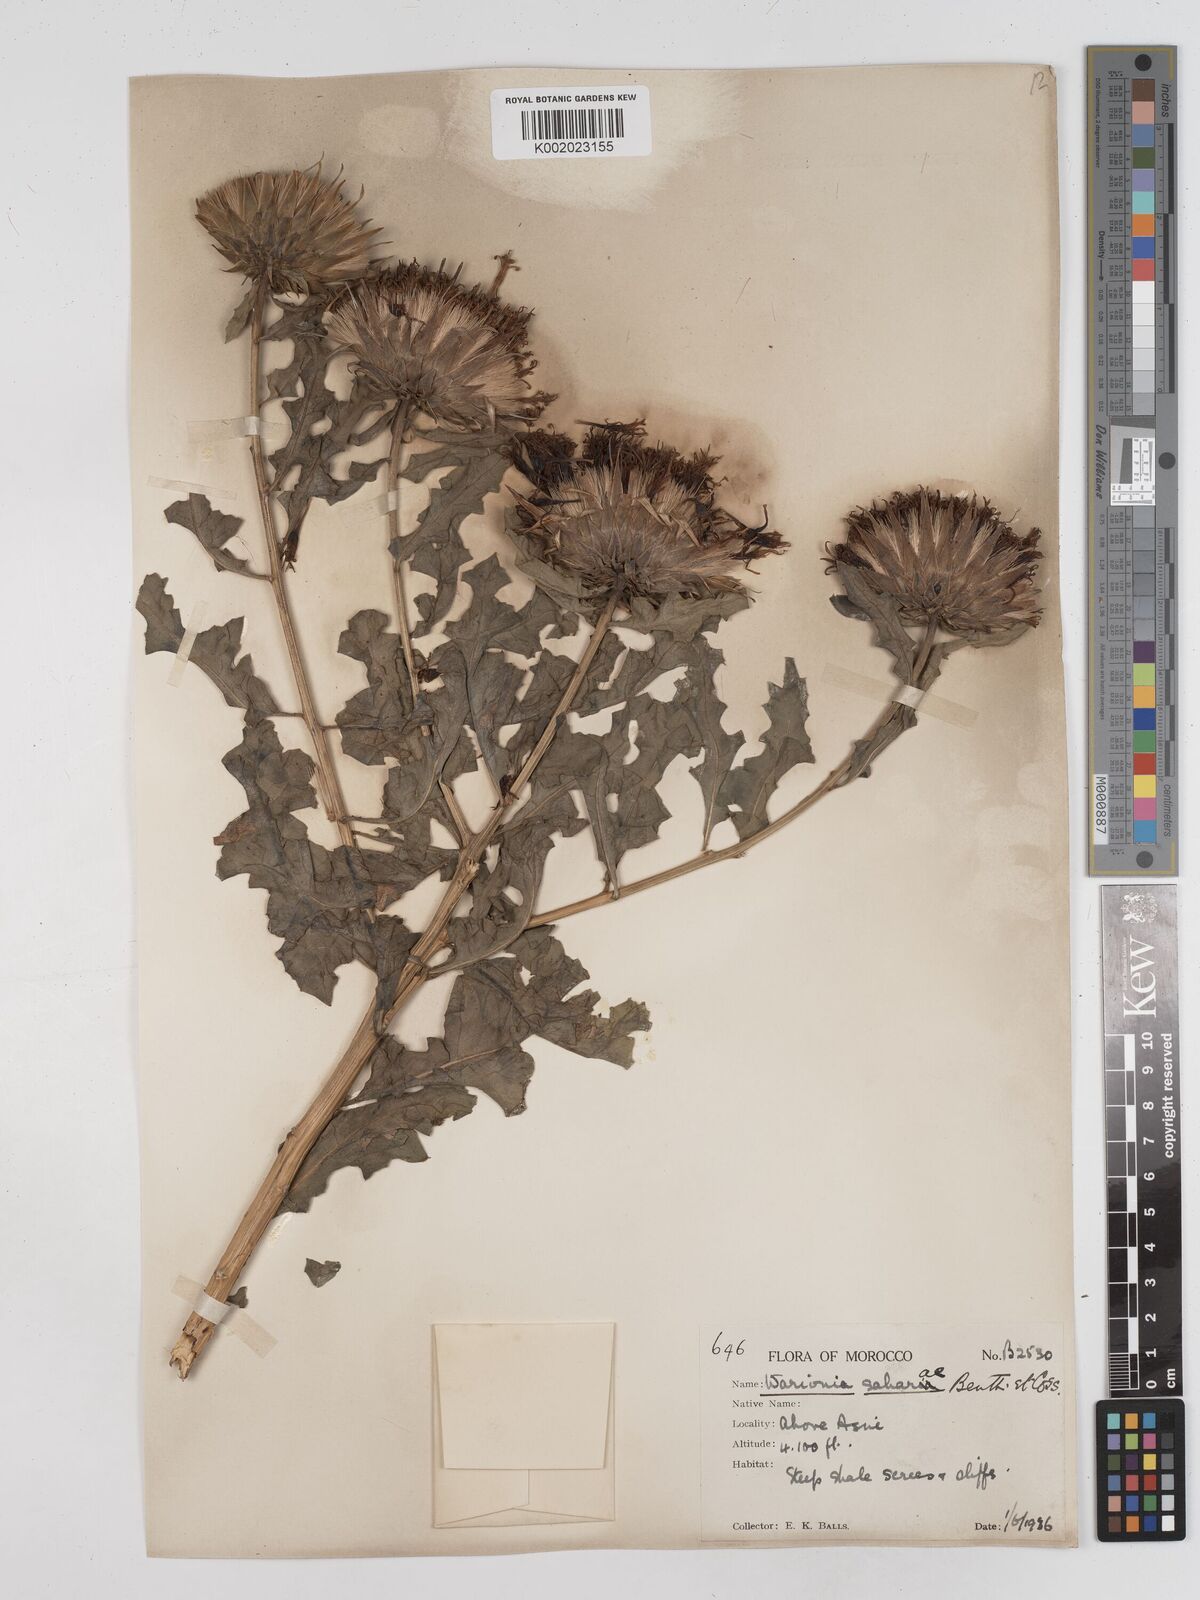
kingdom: Plantae
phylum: Tracheophyta
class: Magnoliopsida
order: Asterales
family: Asteraceae
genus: Warionia
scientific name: Warionia saharae
